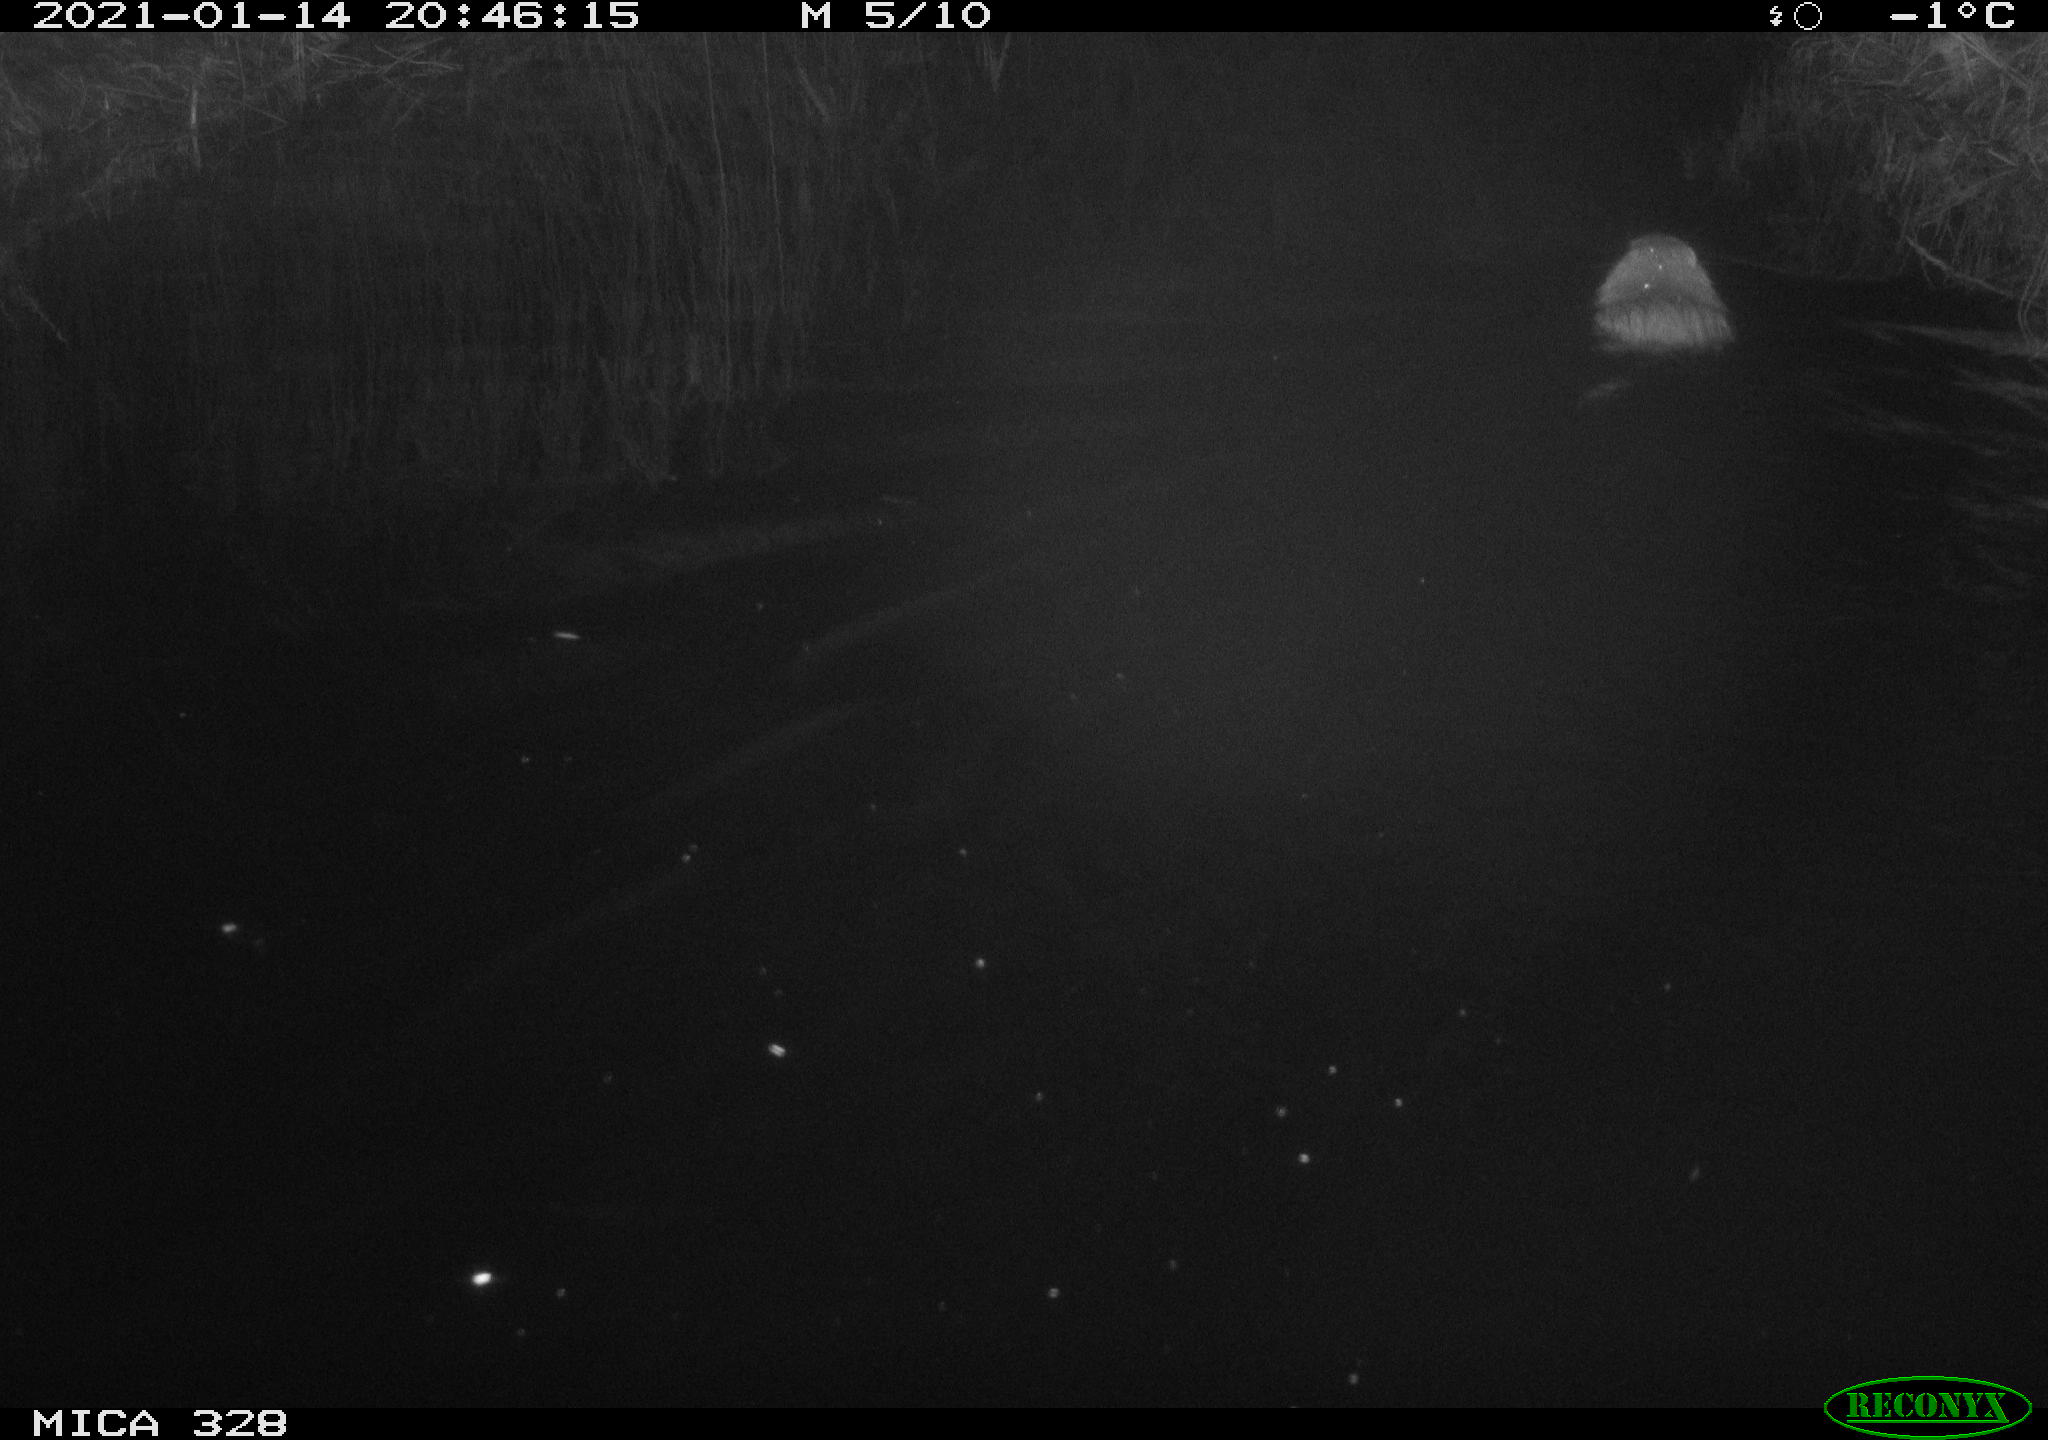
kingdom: Animalia
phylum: Chordata
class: Mammalia
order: Rodentia
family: Myocastoridae
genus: Myocastor
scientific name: Myocastor coypus
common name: Coypu
